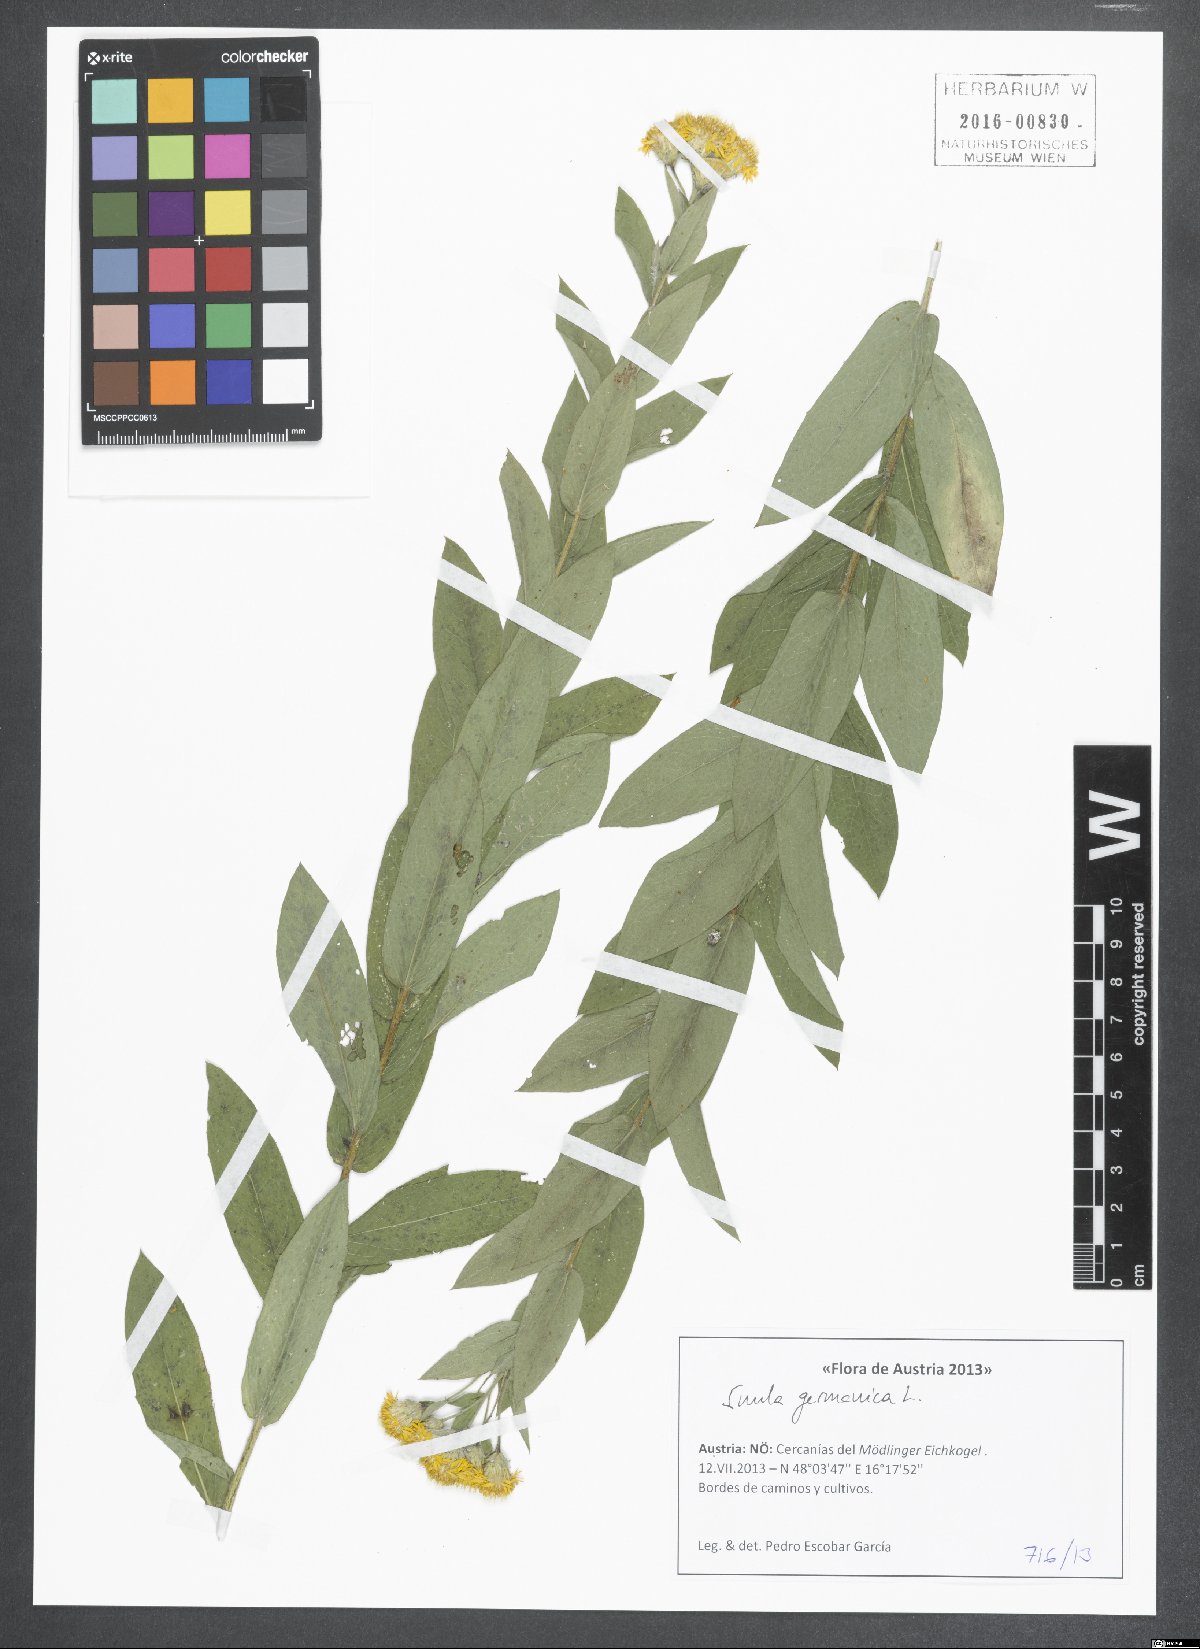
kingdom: Plantae
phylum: Tracheophyta
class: Magnoliopsida
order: Asterales
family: Asteraceae
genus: Pentanema
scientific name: Pentanema germanicum
